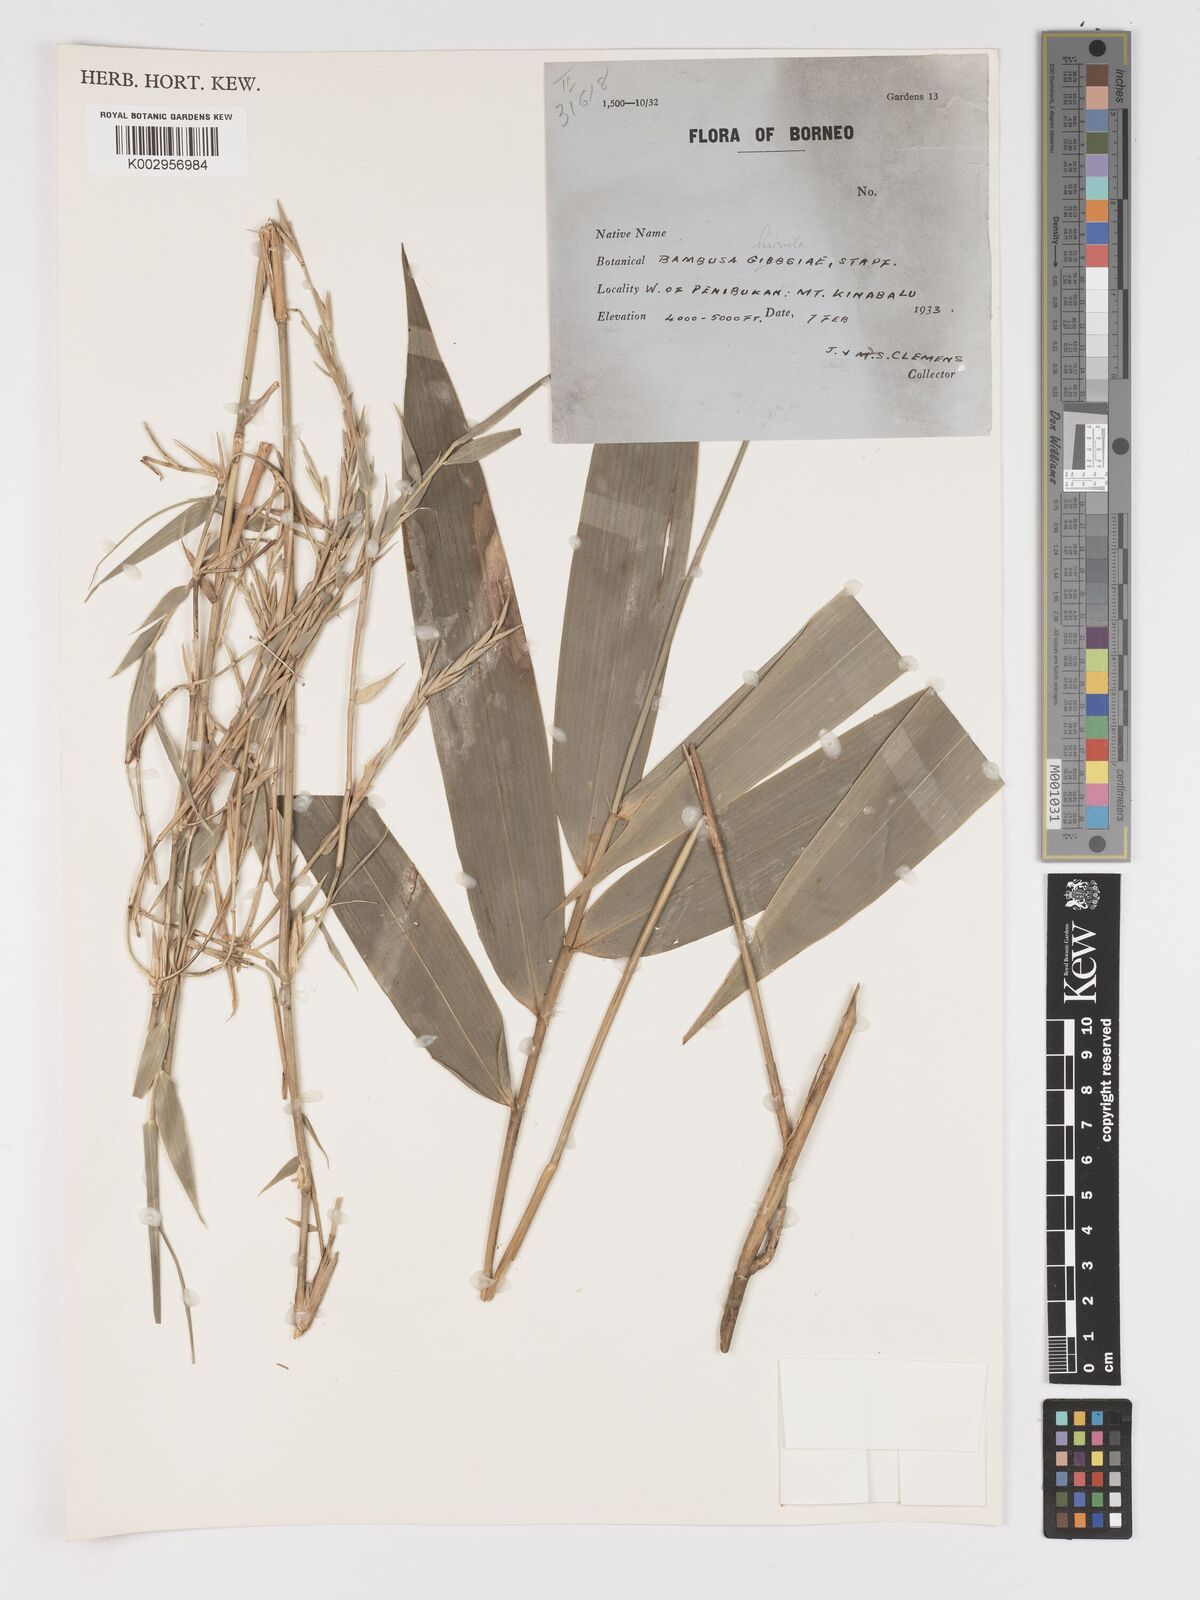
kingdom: Plantae
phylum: Tracheophyta
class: Liliopsida
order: Poales
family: Poaceae
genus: Racemobambos
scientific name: Racemobambos hirsuta
